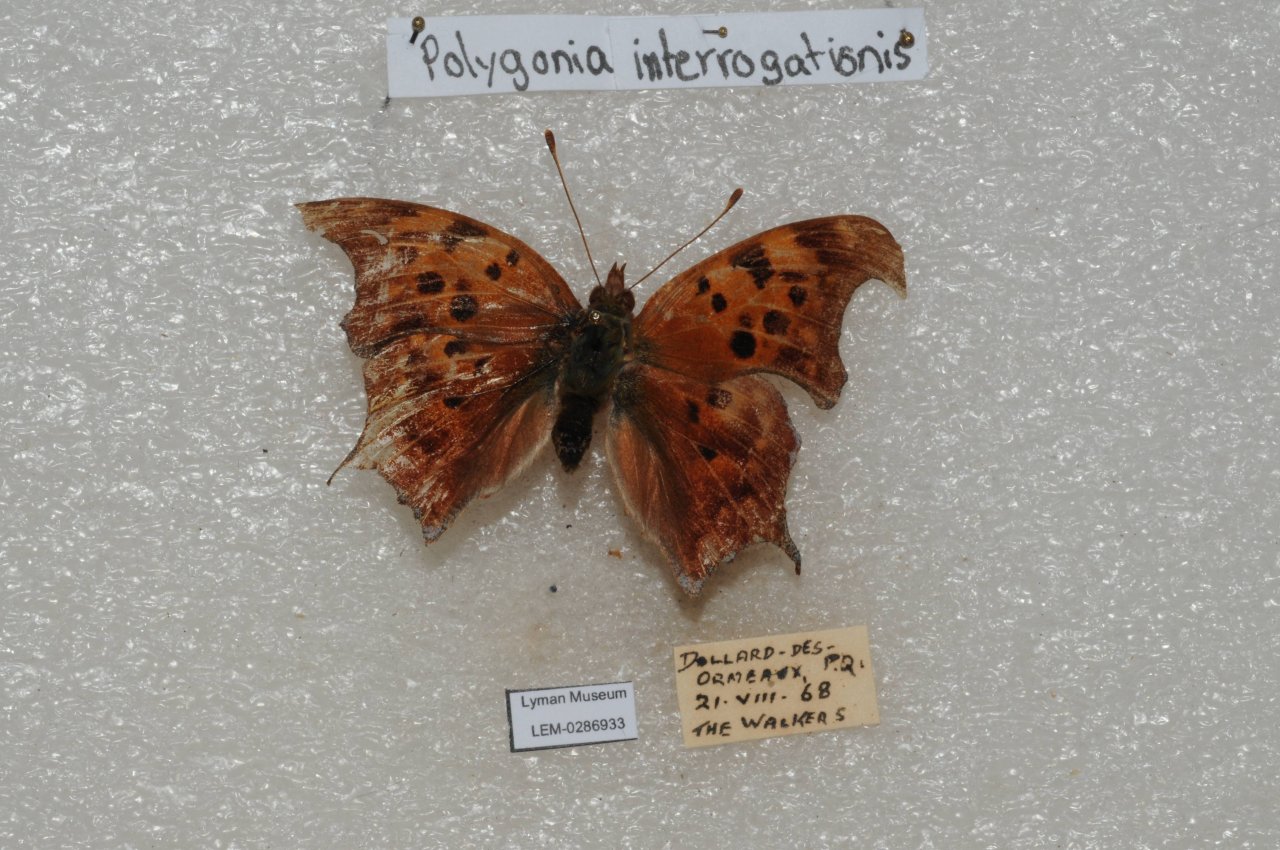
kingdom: Animalia
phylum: Arthropoda
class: Insecta
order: Lepidoptera
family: Nymphalidae
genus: Polygonia
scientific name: Polygonia interrogationis
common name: Question Mark
